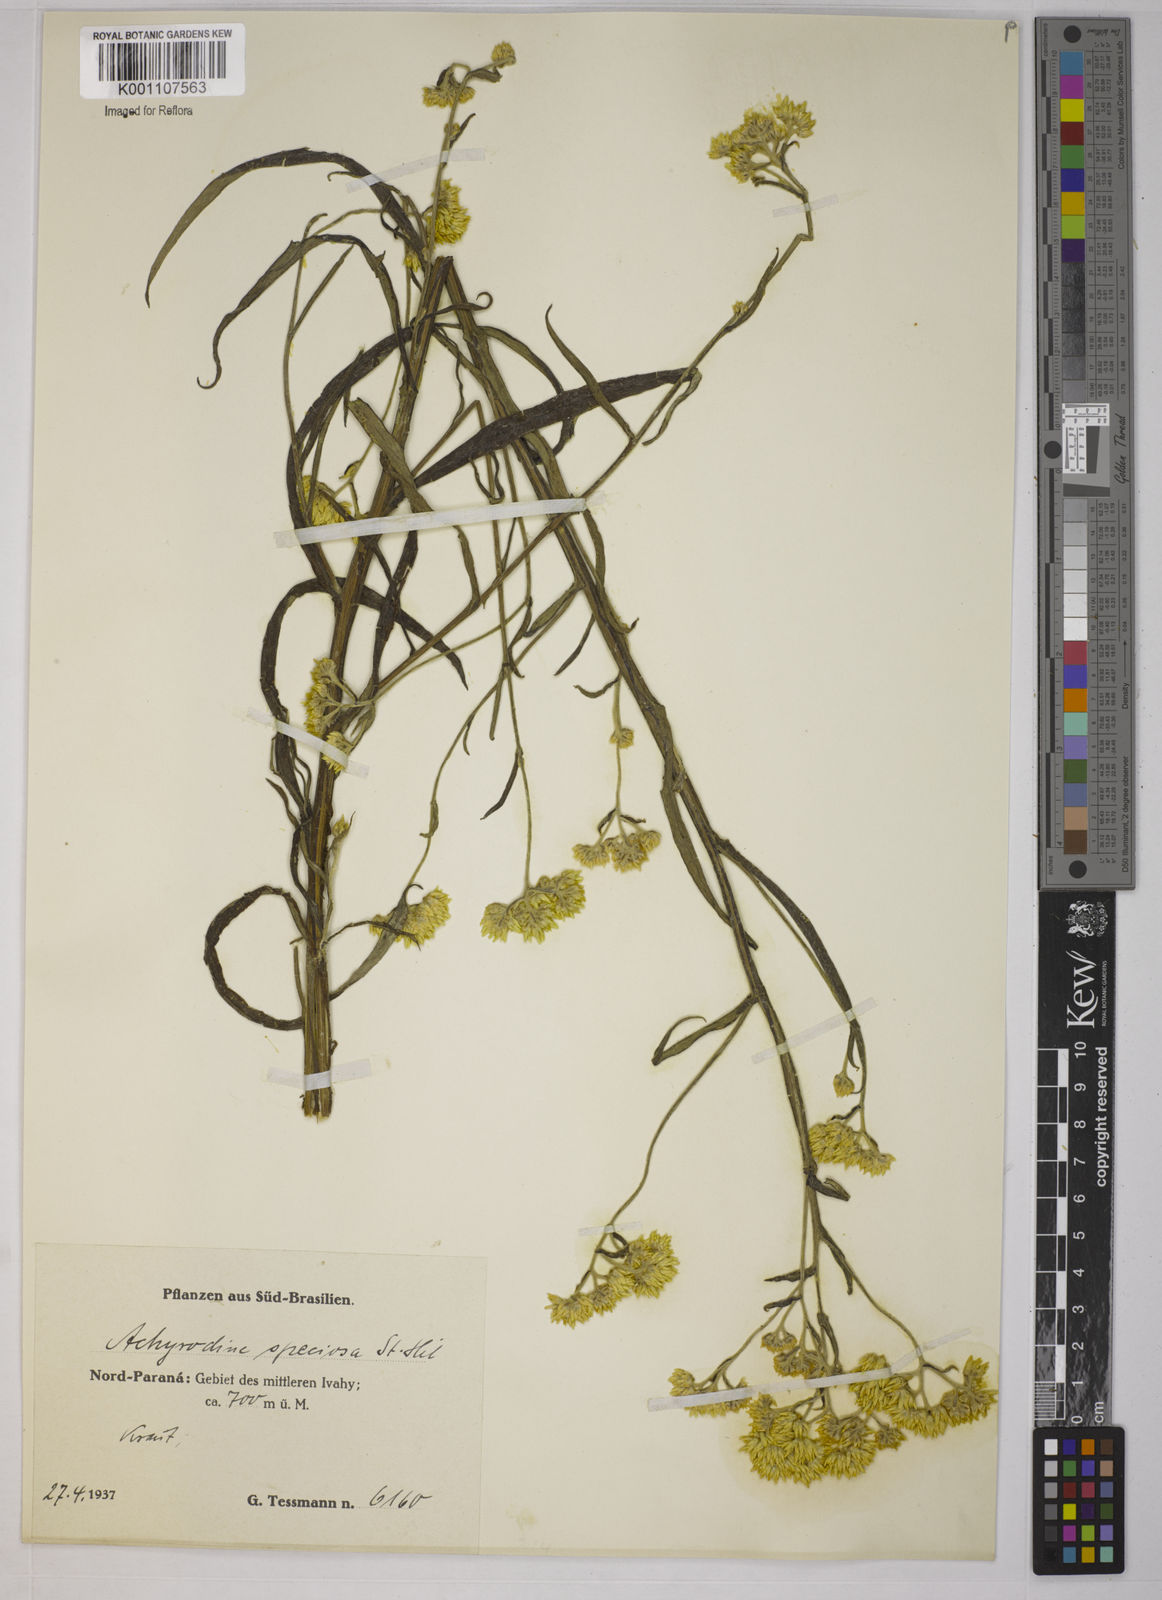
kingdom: Plantae
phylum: Tracheophyta
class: Magnoliopsida
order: Asterales
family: Asteraceae
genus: Achyrocline
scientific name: Achyrocline
